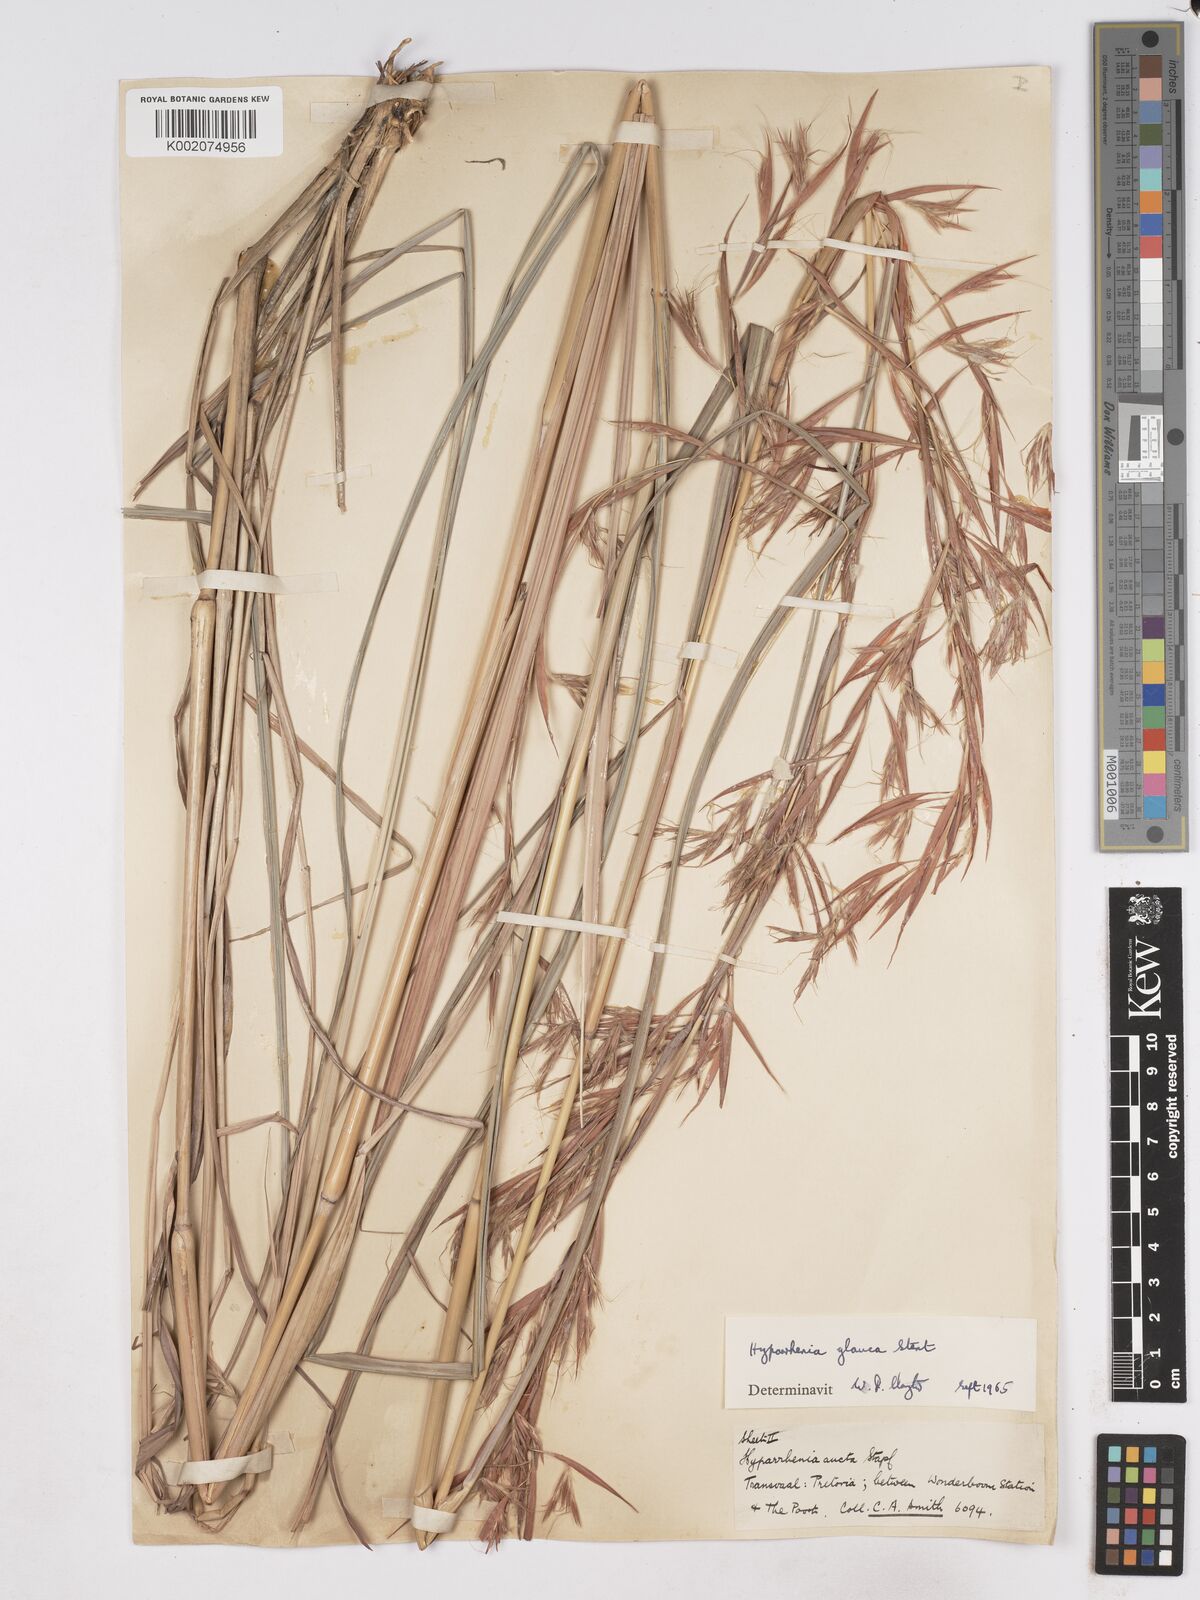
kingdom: Plantae
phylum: Tracheophyta
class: Liliopsida
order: Poales
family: Poaceae
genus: Hyparrhenia
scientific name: Hyparrhenia tamba
